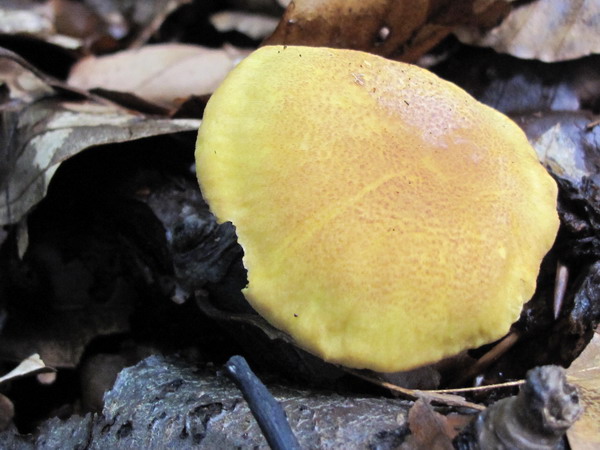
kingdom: Fungi
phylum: Basidiomycota
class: Agaricomycetes
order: Cantharellales
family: Hydnaceae
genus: Cantharellus
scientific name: Cantharellus amethysteus
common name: ametyst-kantarel
